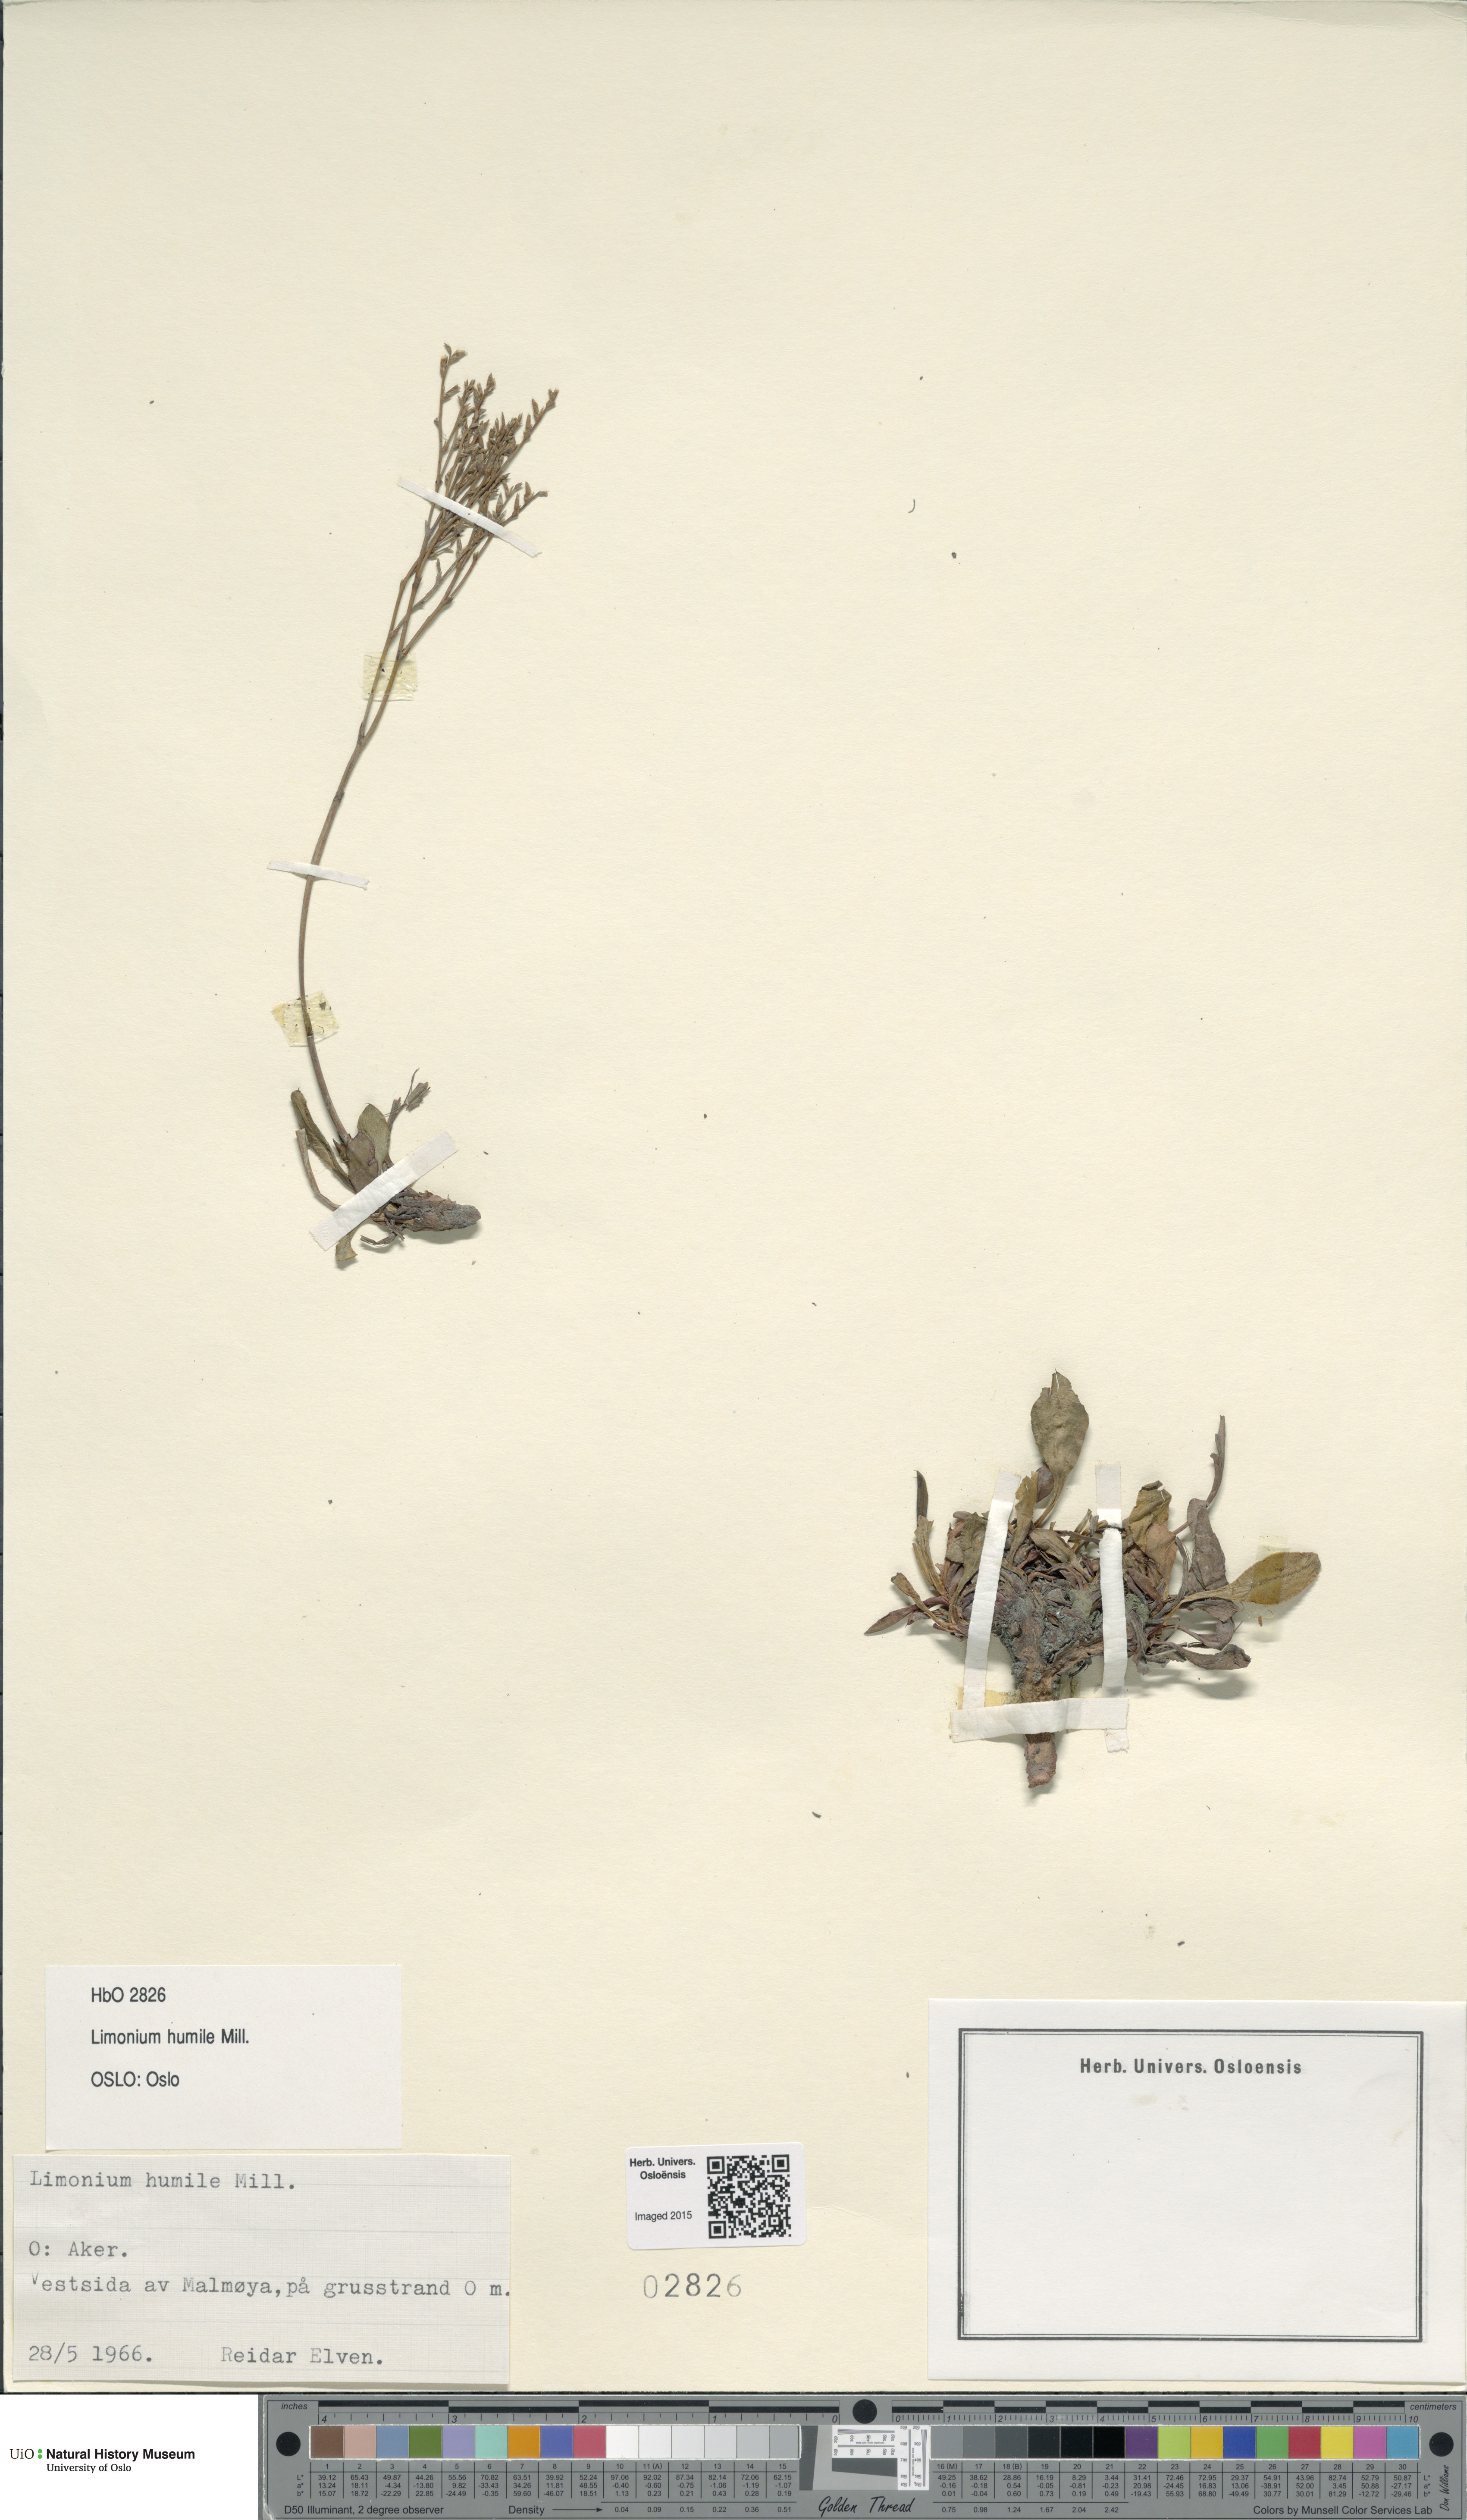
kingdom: Plantae
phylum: Tracheophyta
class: Magnoliopsida
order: Caryophyllales
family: Plumbaginaceae
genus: Limonium
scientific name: Limonium humile
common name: Lax-flowered sea-lavender
